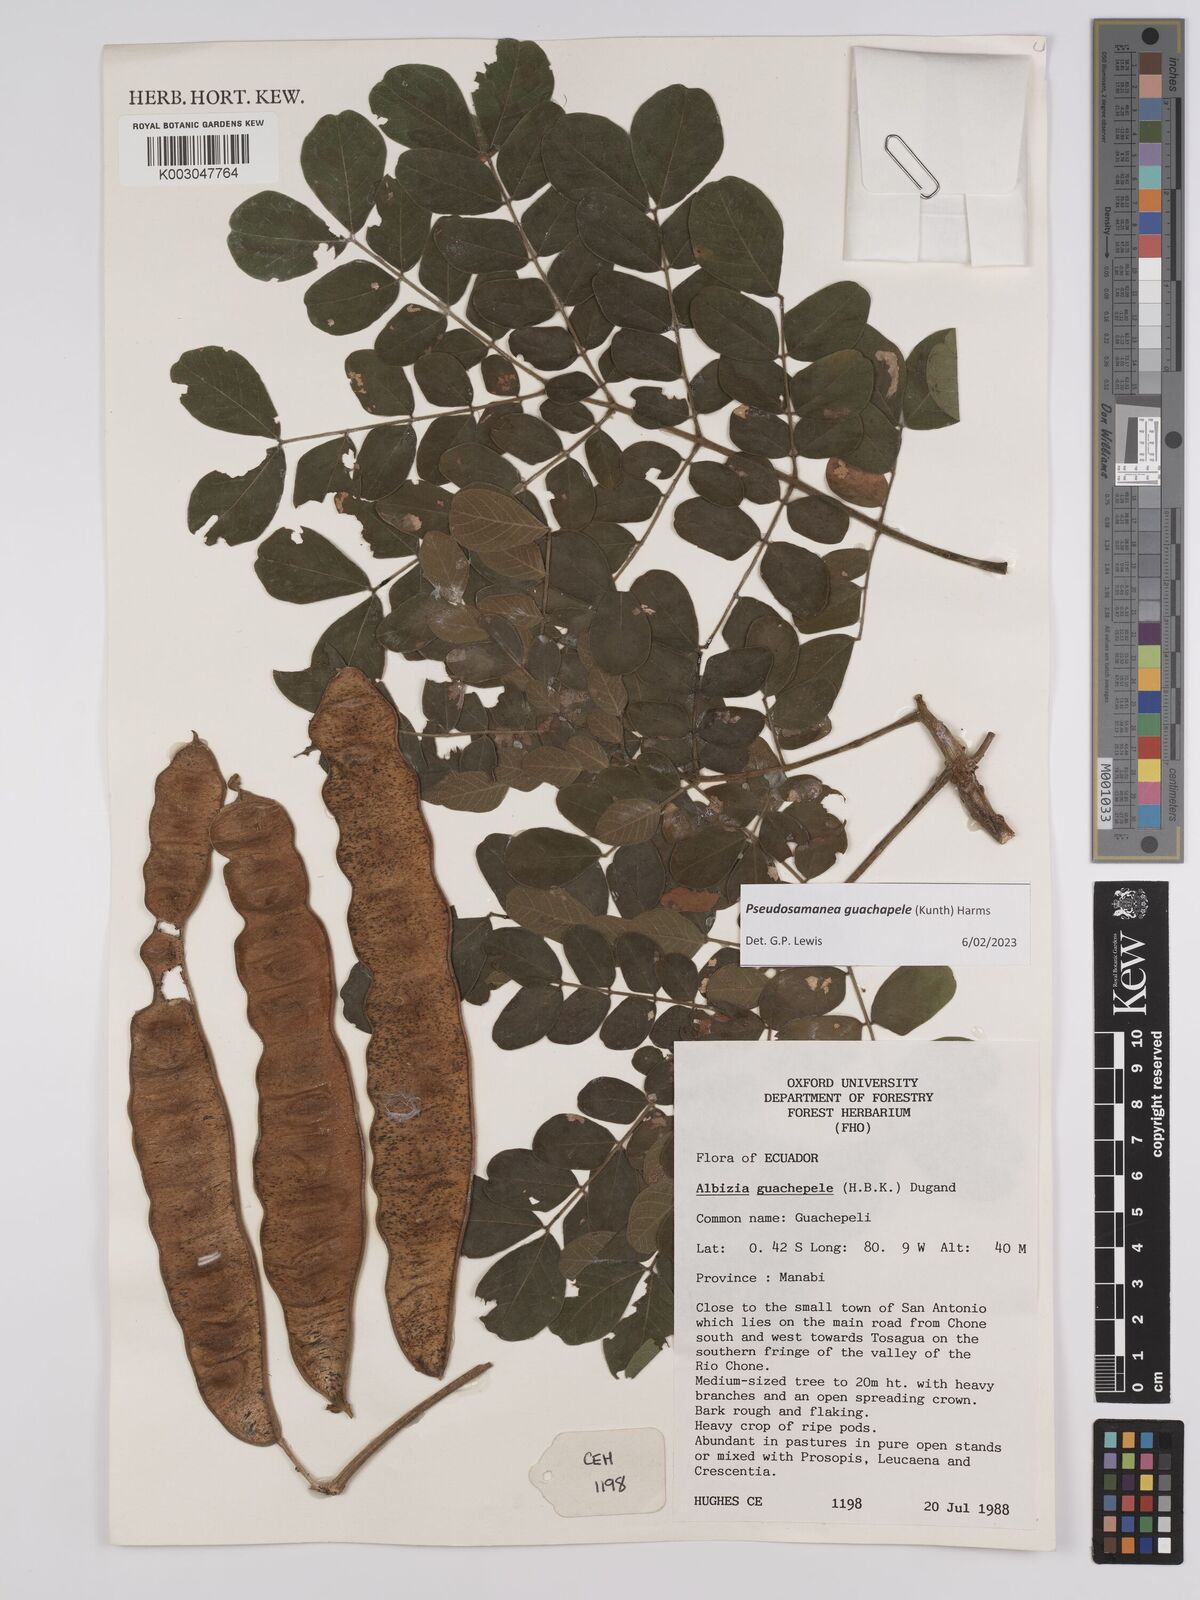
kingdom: Plantae
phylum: Tracheophyta
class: Magnoliopsida
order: Fabales
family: Fabaceae
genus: Pseudosamanea
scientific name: Pseudosamanea guachapele
